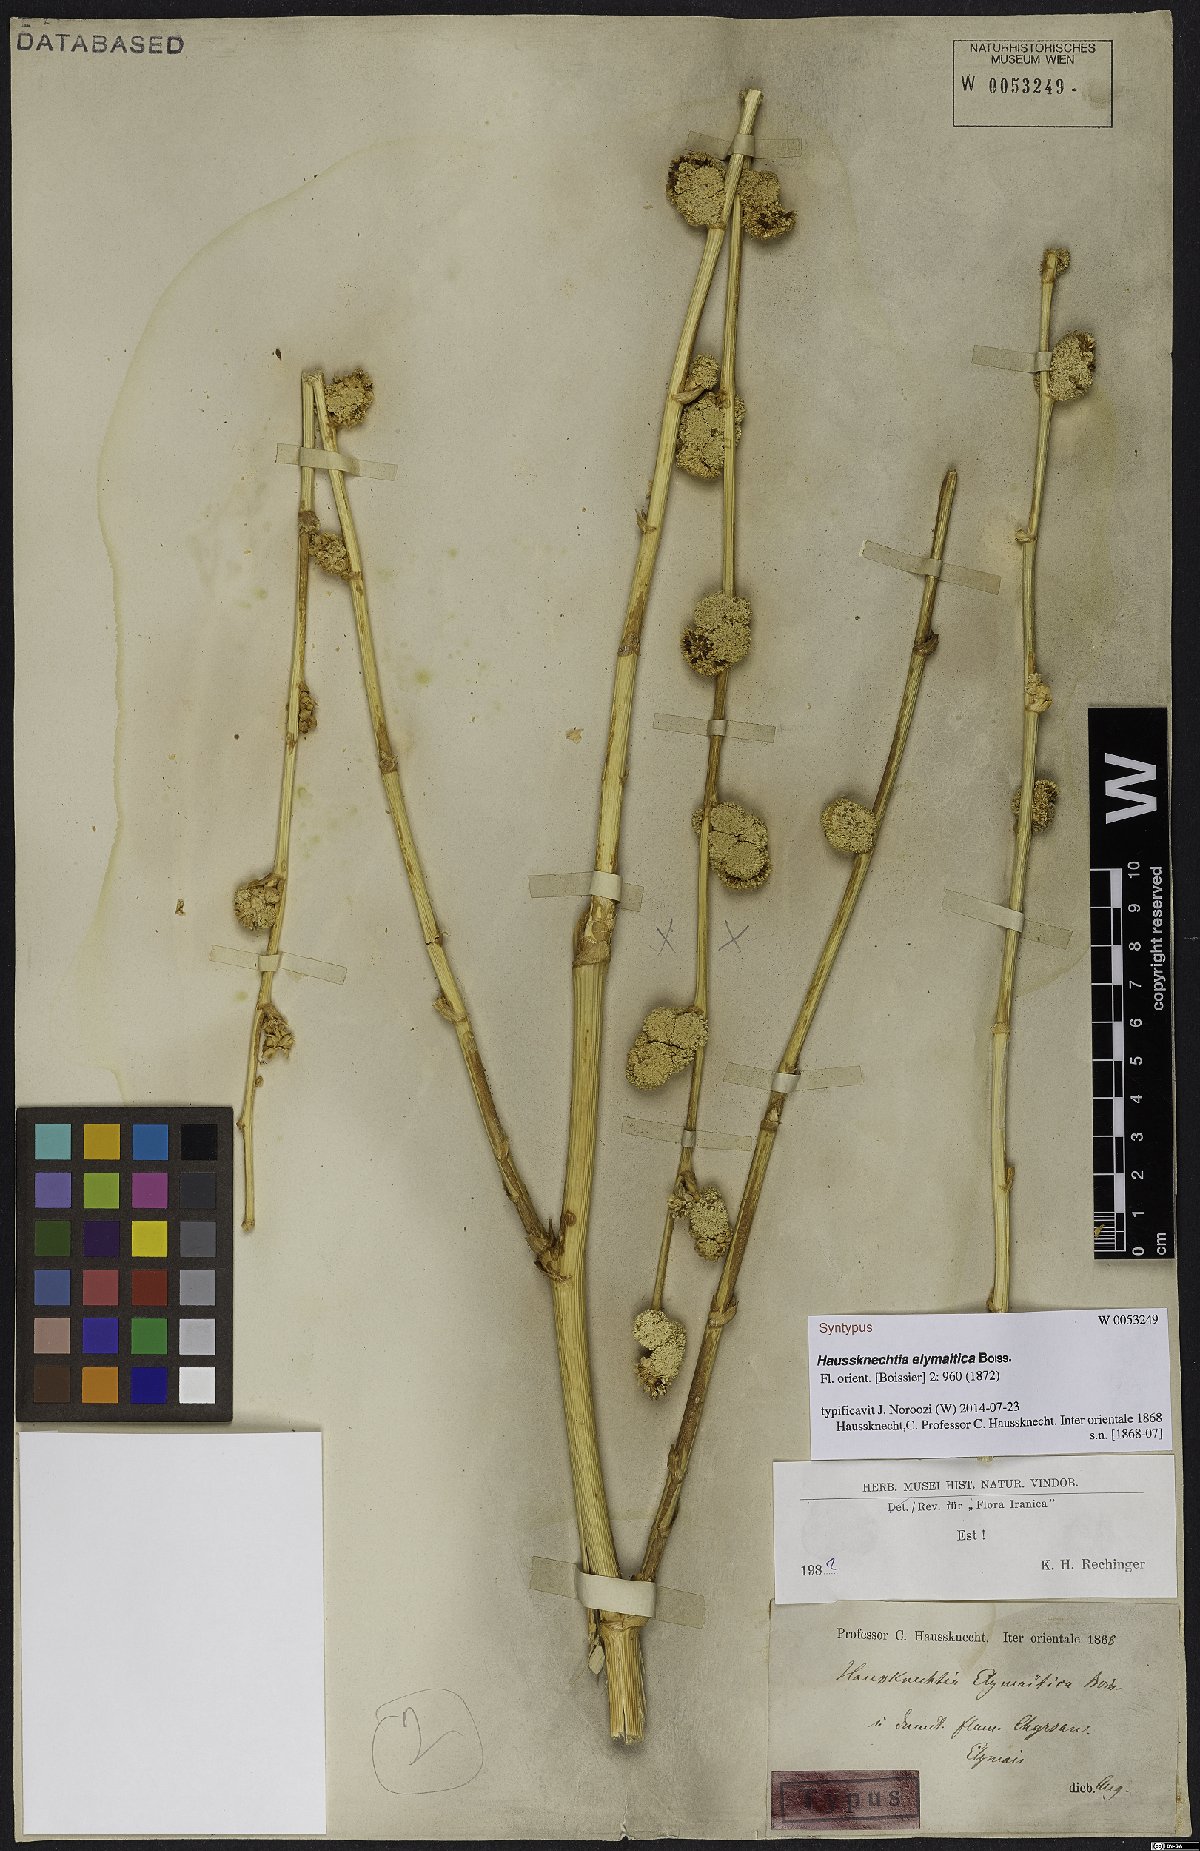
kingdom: Plantae
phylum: Tracheophyta
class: Magnoliopsida
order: Apiales
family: Apiaceae
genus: Haussknechtia
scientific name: Haussknechtia elymaitica
